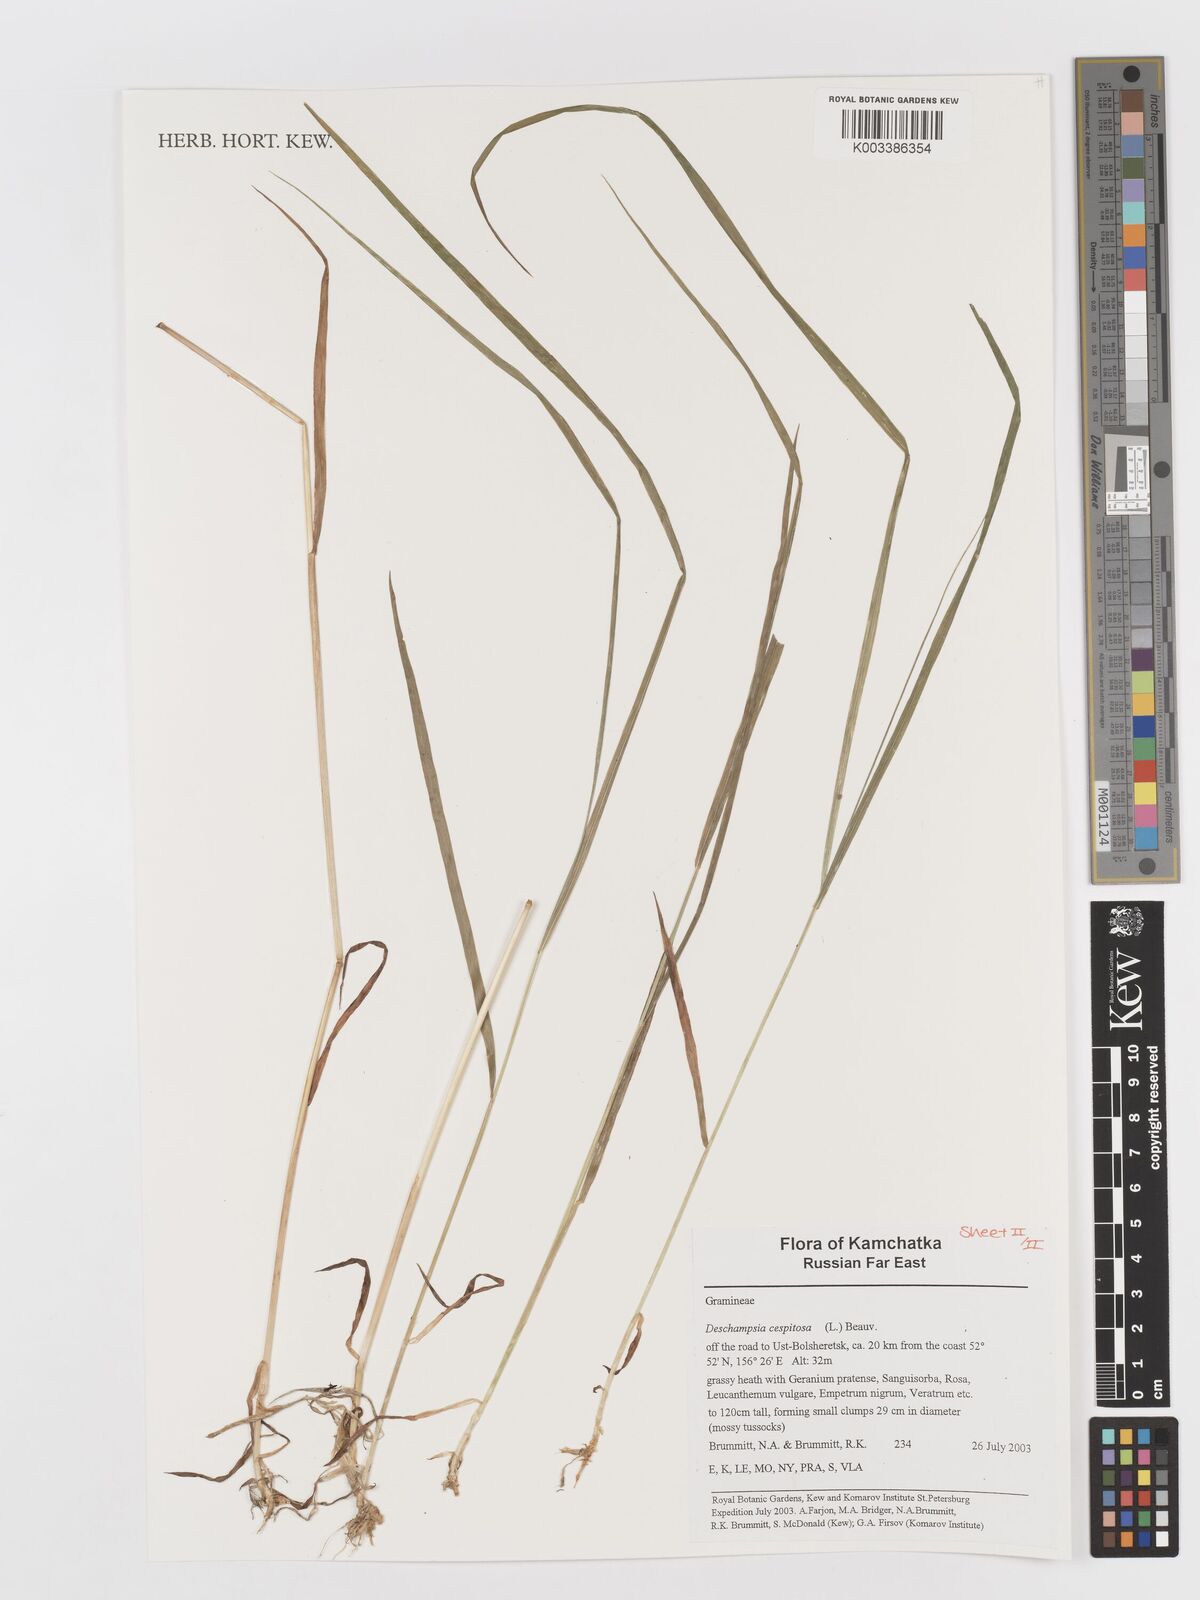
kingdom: Plantae
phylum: Tracheophyta
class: Liliopsida
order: Poales
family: Poaceae
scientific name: Poaceae
